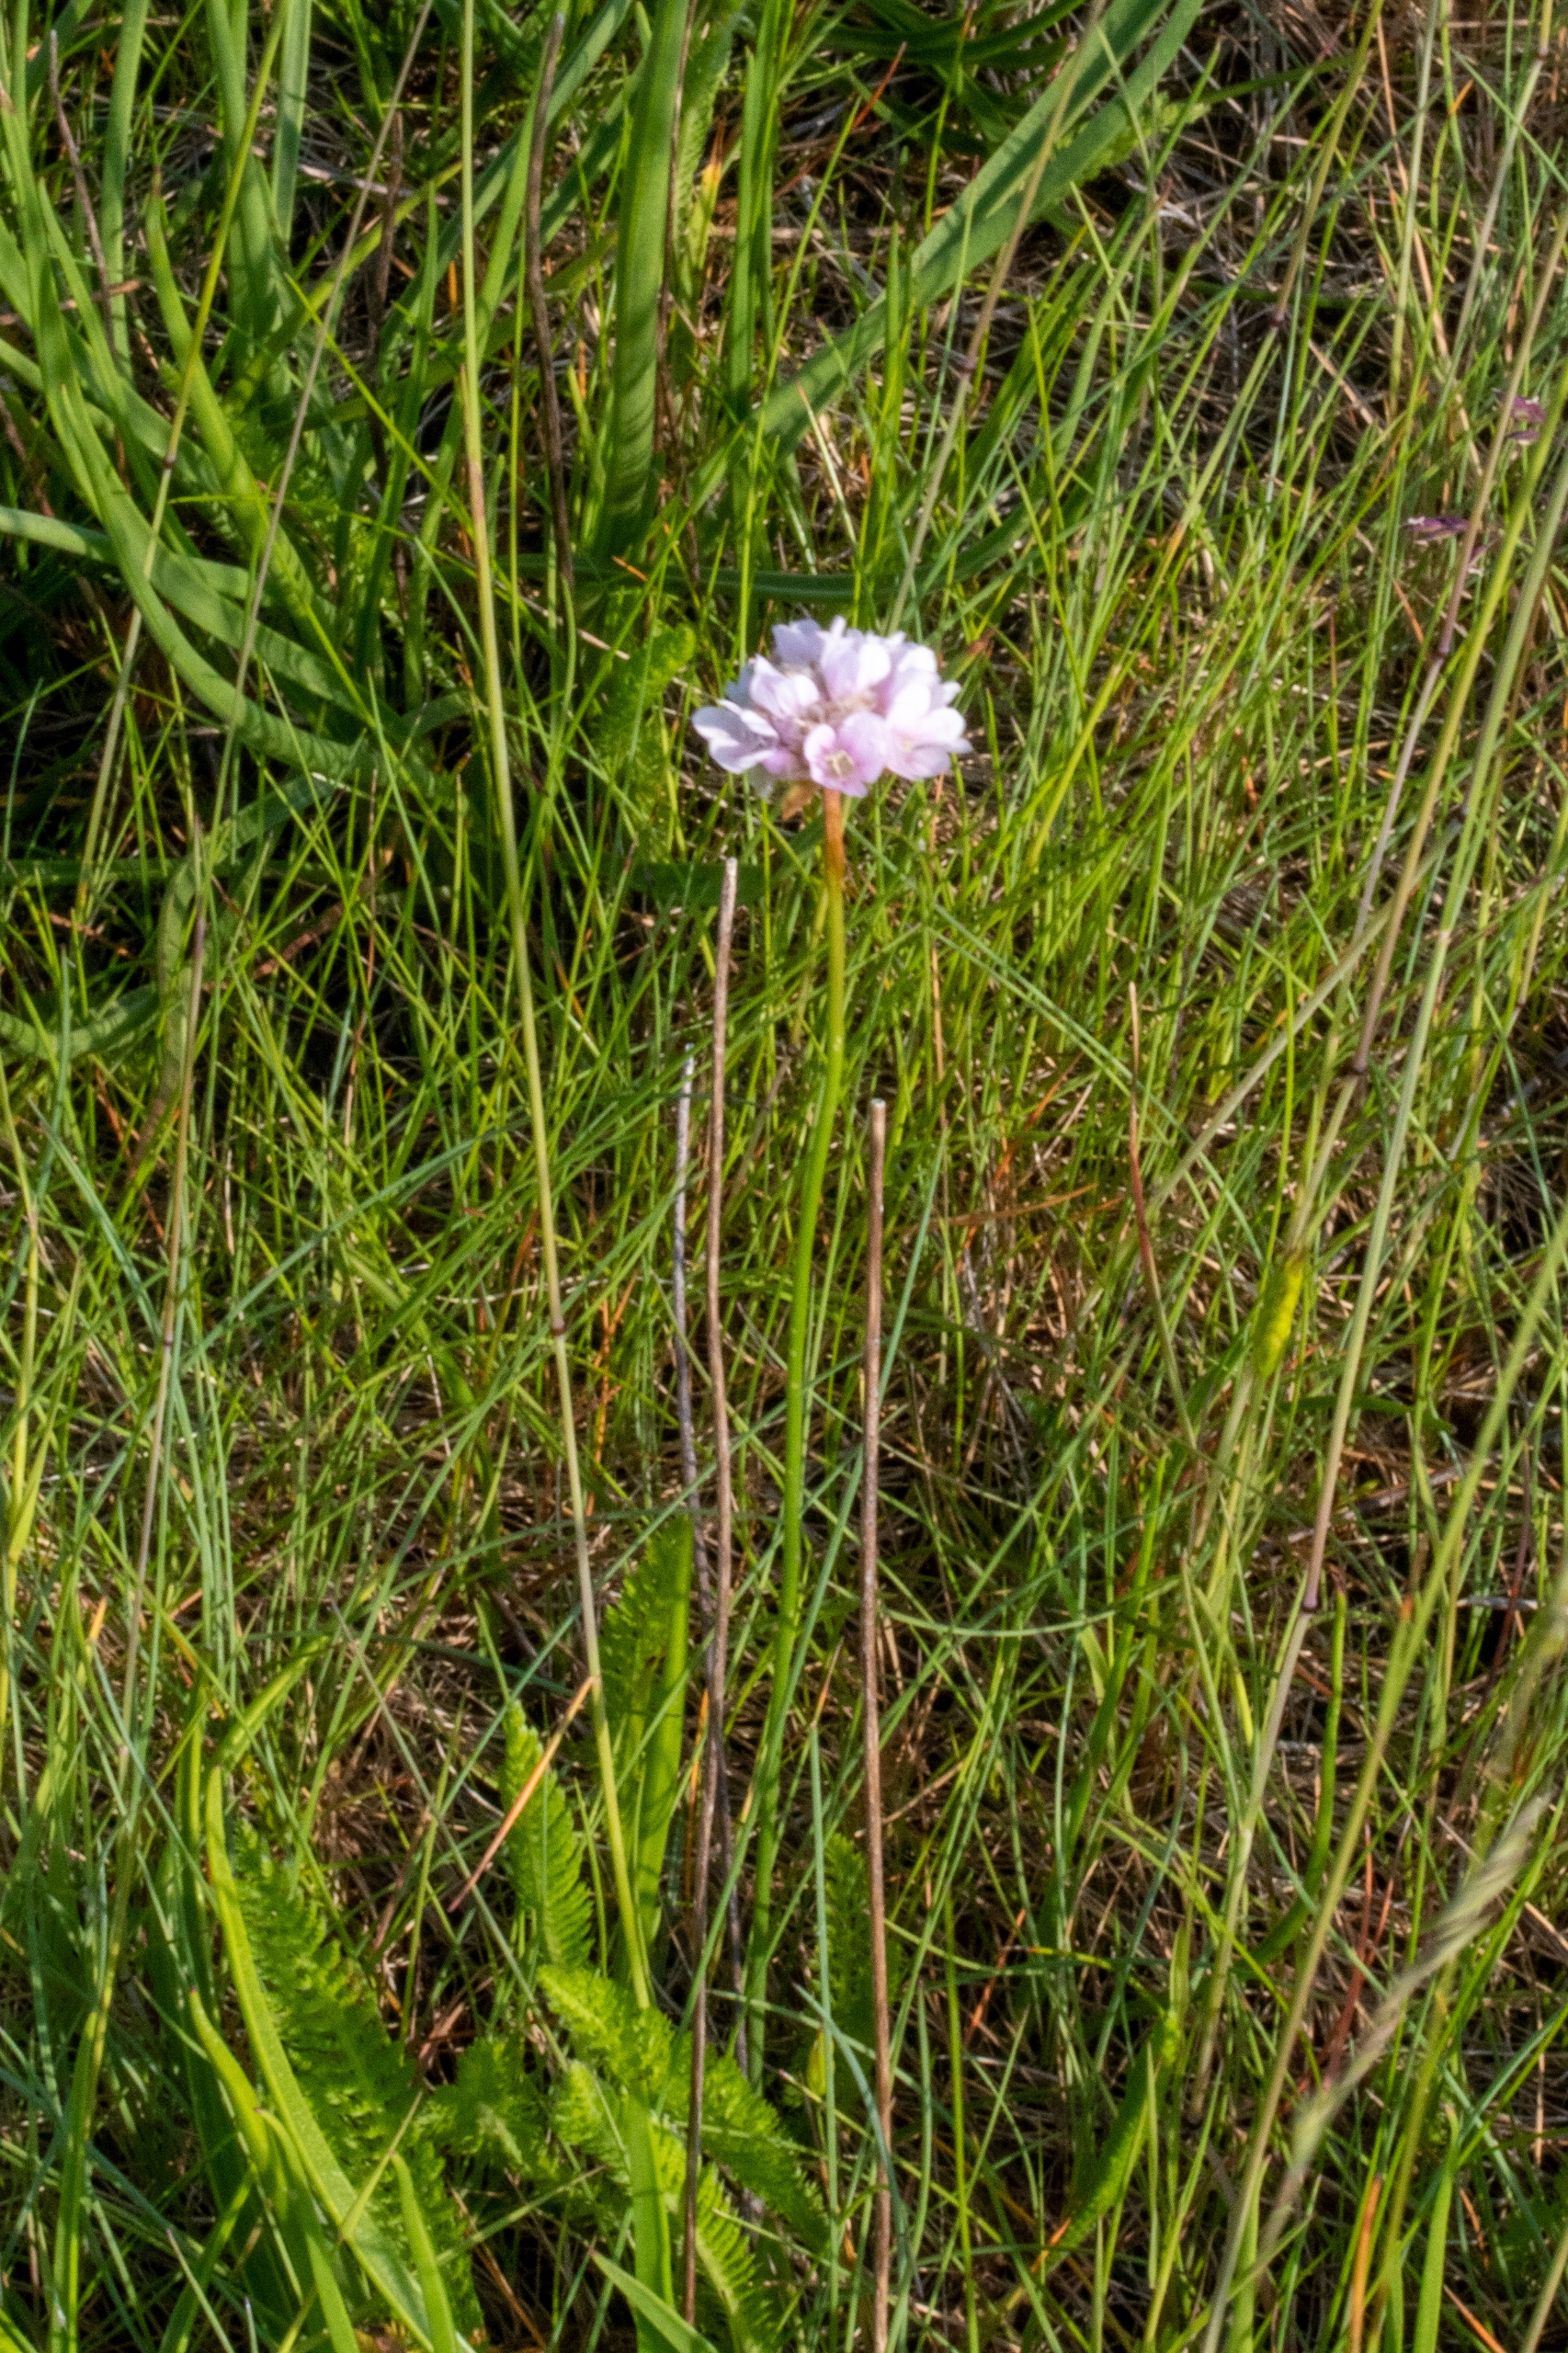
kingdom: Plantae
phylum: Tracheophyta
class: Magnoliopsida
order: Caryophyllales
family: Plumbaginaceae
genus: Armeria
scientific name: Armeria maritima
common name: Engelskgræs
